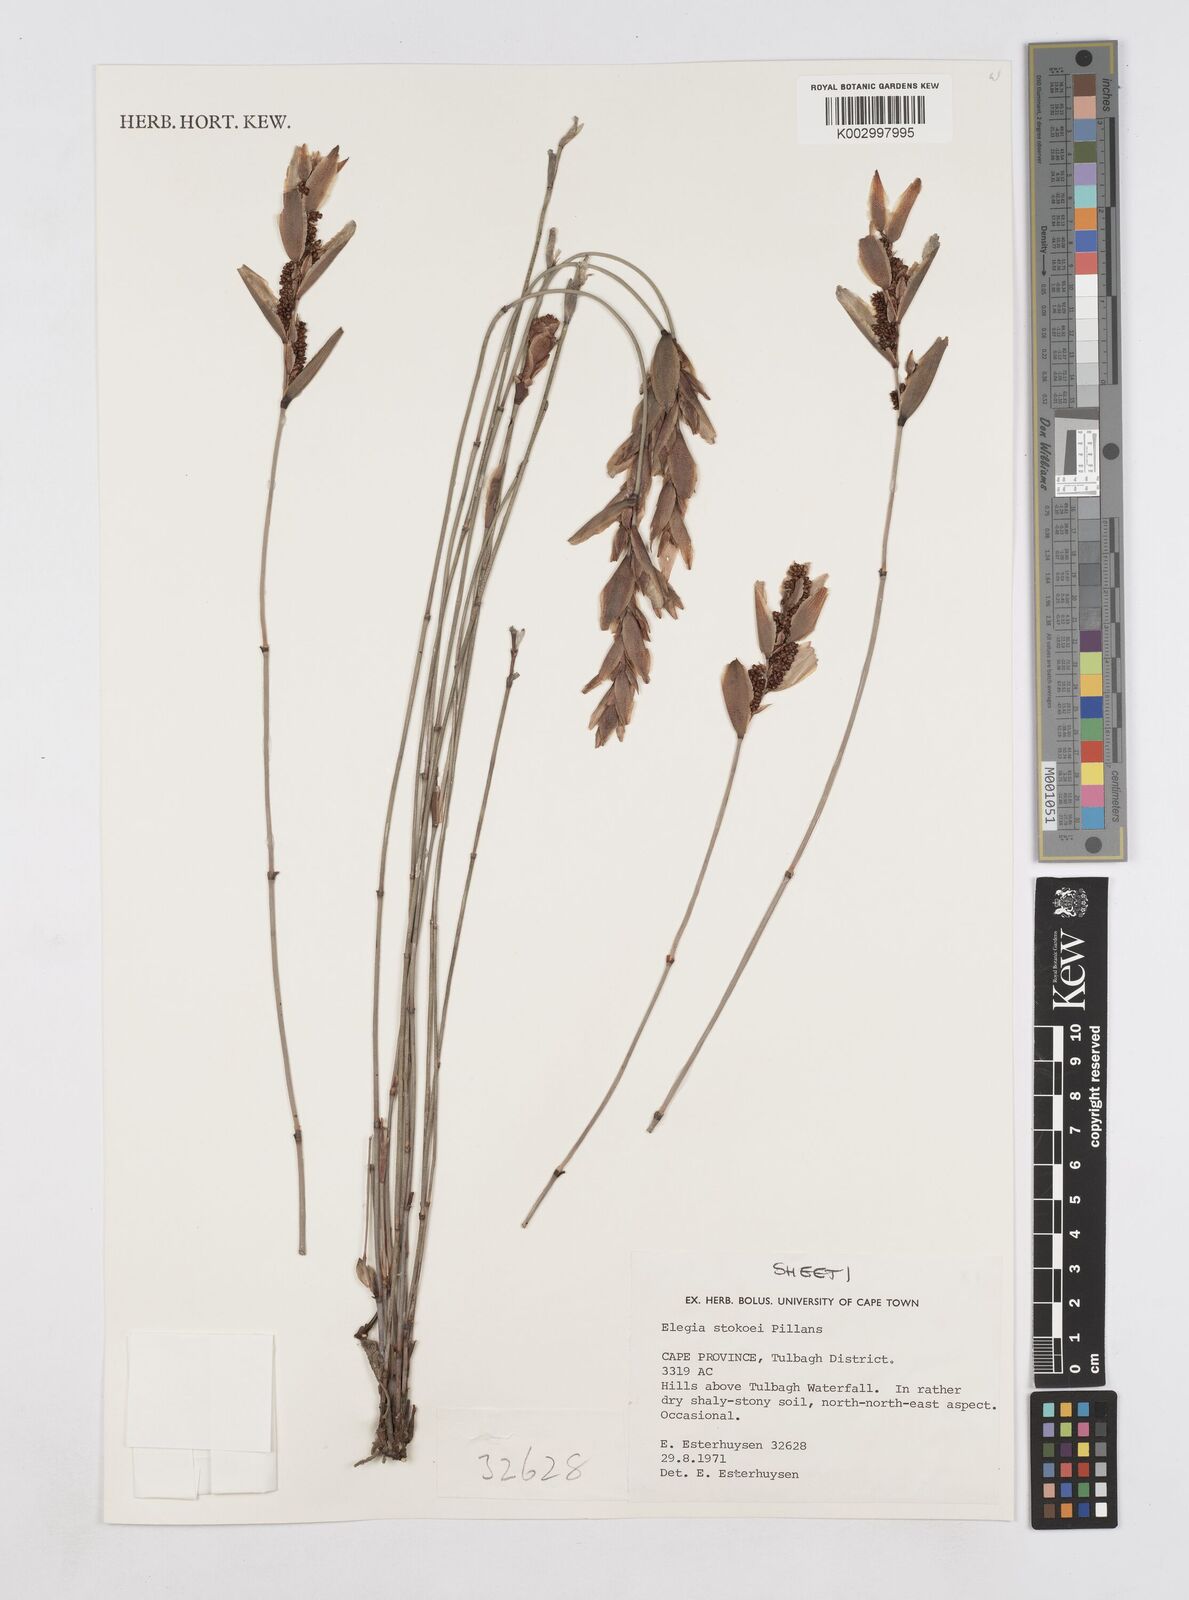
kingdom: Plantae
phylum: Tracheophyta
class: Liliopsida
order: Poales
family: Restionaceae
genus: Elegia
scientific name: Elegia stokoei
